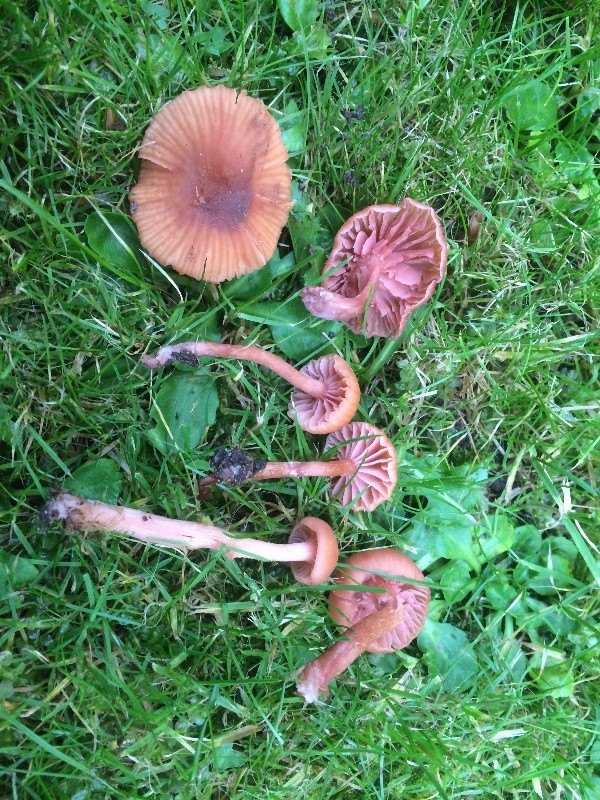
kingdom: Fungi
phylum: Basidiomycota
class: Agaricomycetes
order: Agaricales
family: Hydnangiaceae
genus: Laccaria
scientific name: Laccaria laccata
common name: rød ametysthat
